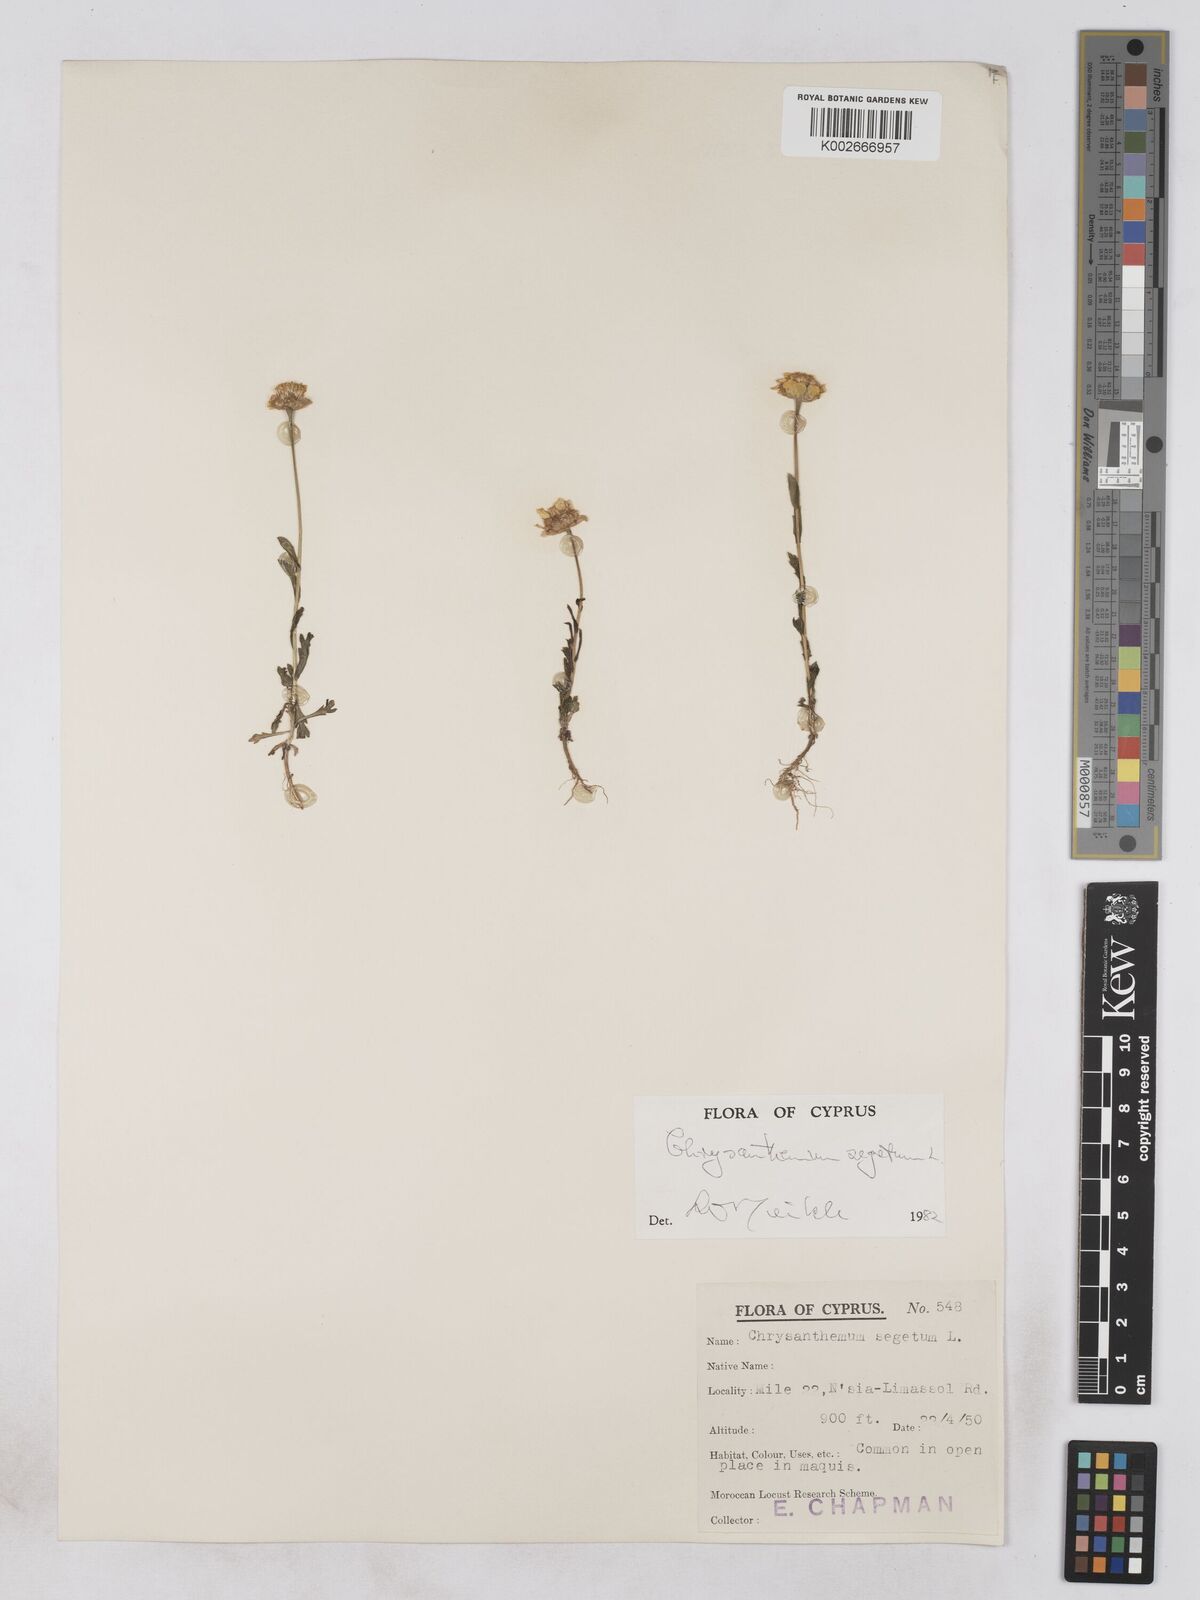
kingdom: Plantae
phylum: Tracheophyta
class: Magnoliopsida
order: Asterales
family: Asteraceae
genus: Glebionis
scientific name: Glebionis segetum
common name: Corndaisy
